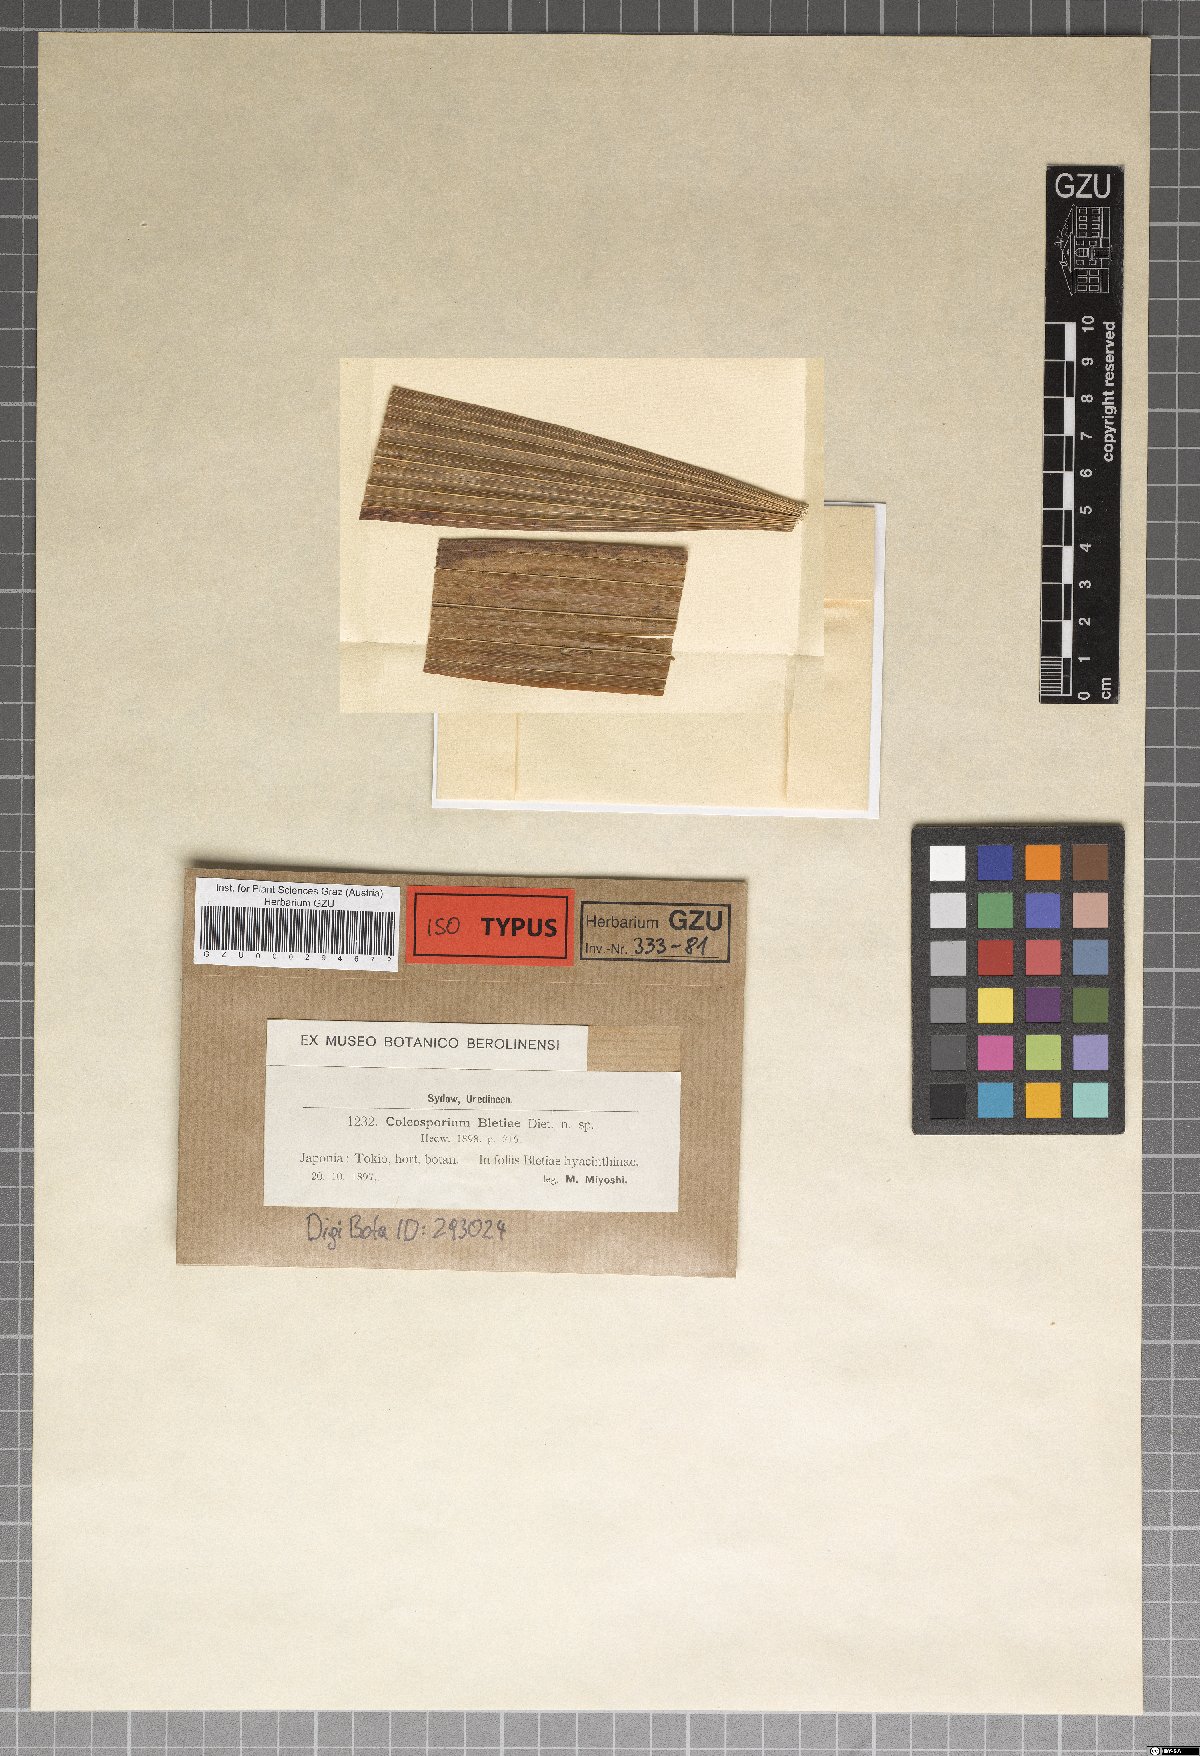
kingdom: Fungi
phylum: Basidiomycota
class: Pucciniomycetes
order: Pucciniales
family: Coleosporiaceae
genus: Coleosporium
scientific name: Coleosporium bletiae
